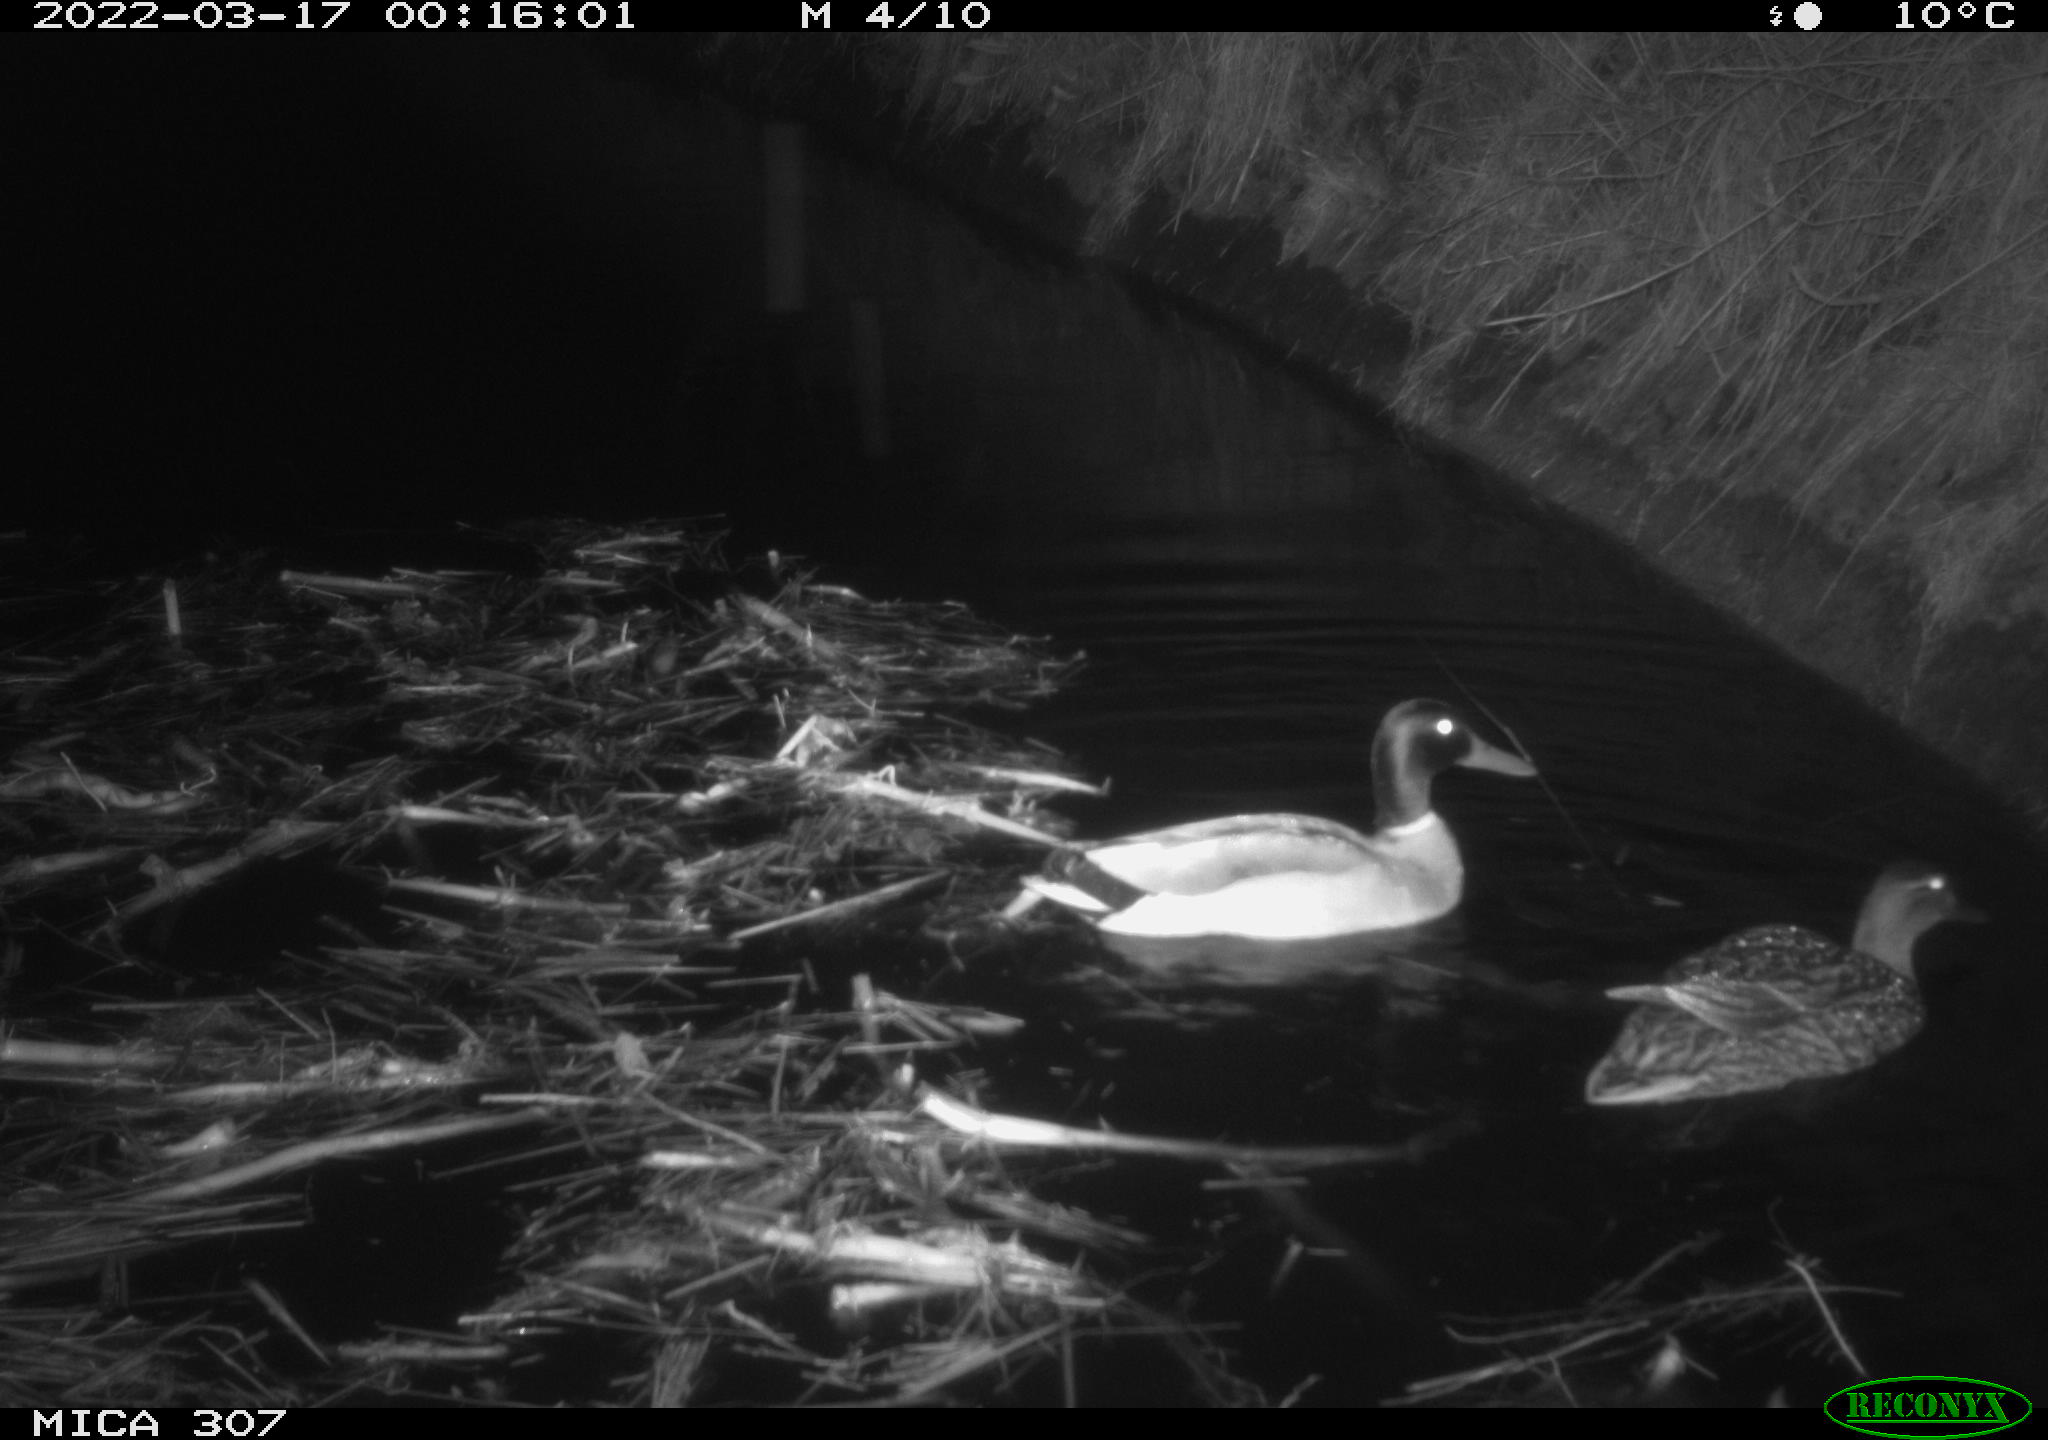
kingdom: Animalia
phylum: Chordata
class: Aves
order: Anseriformes
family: Anatidae
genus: Anas
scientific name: Anas platyrhynchos
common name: Mallard
